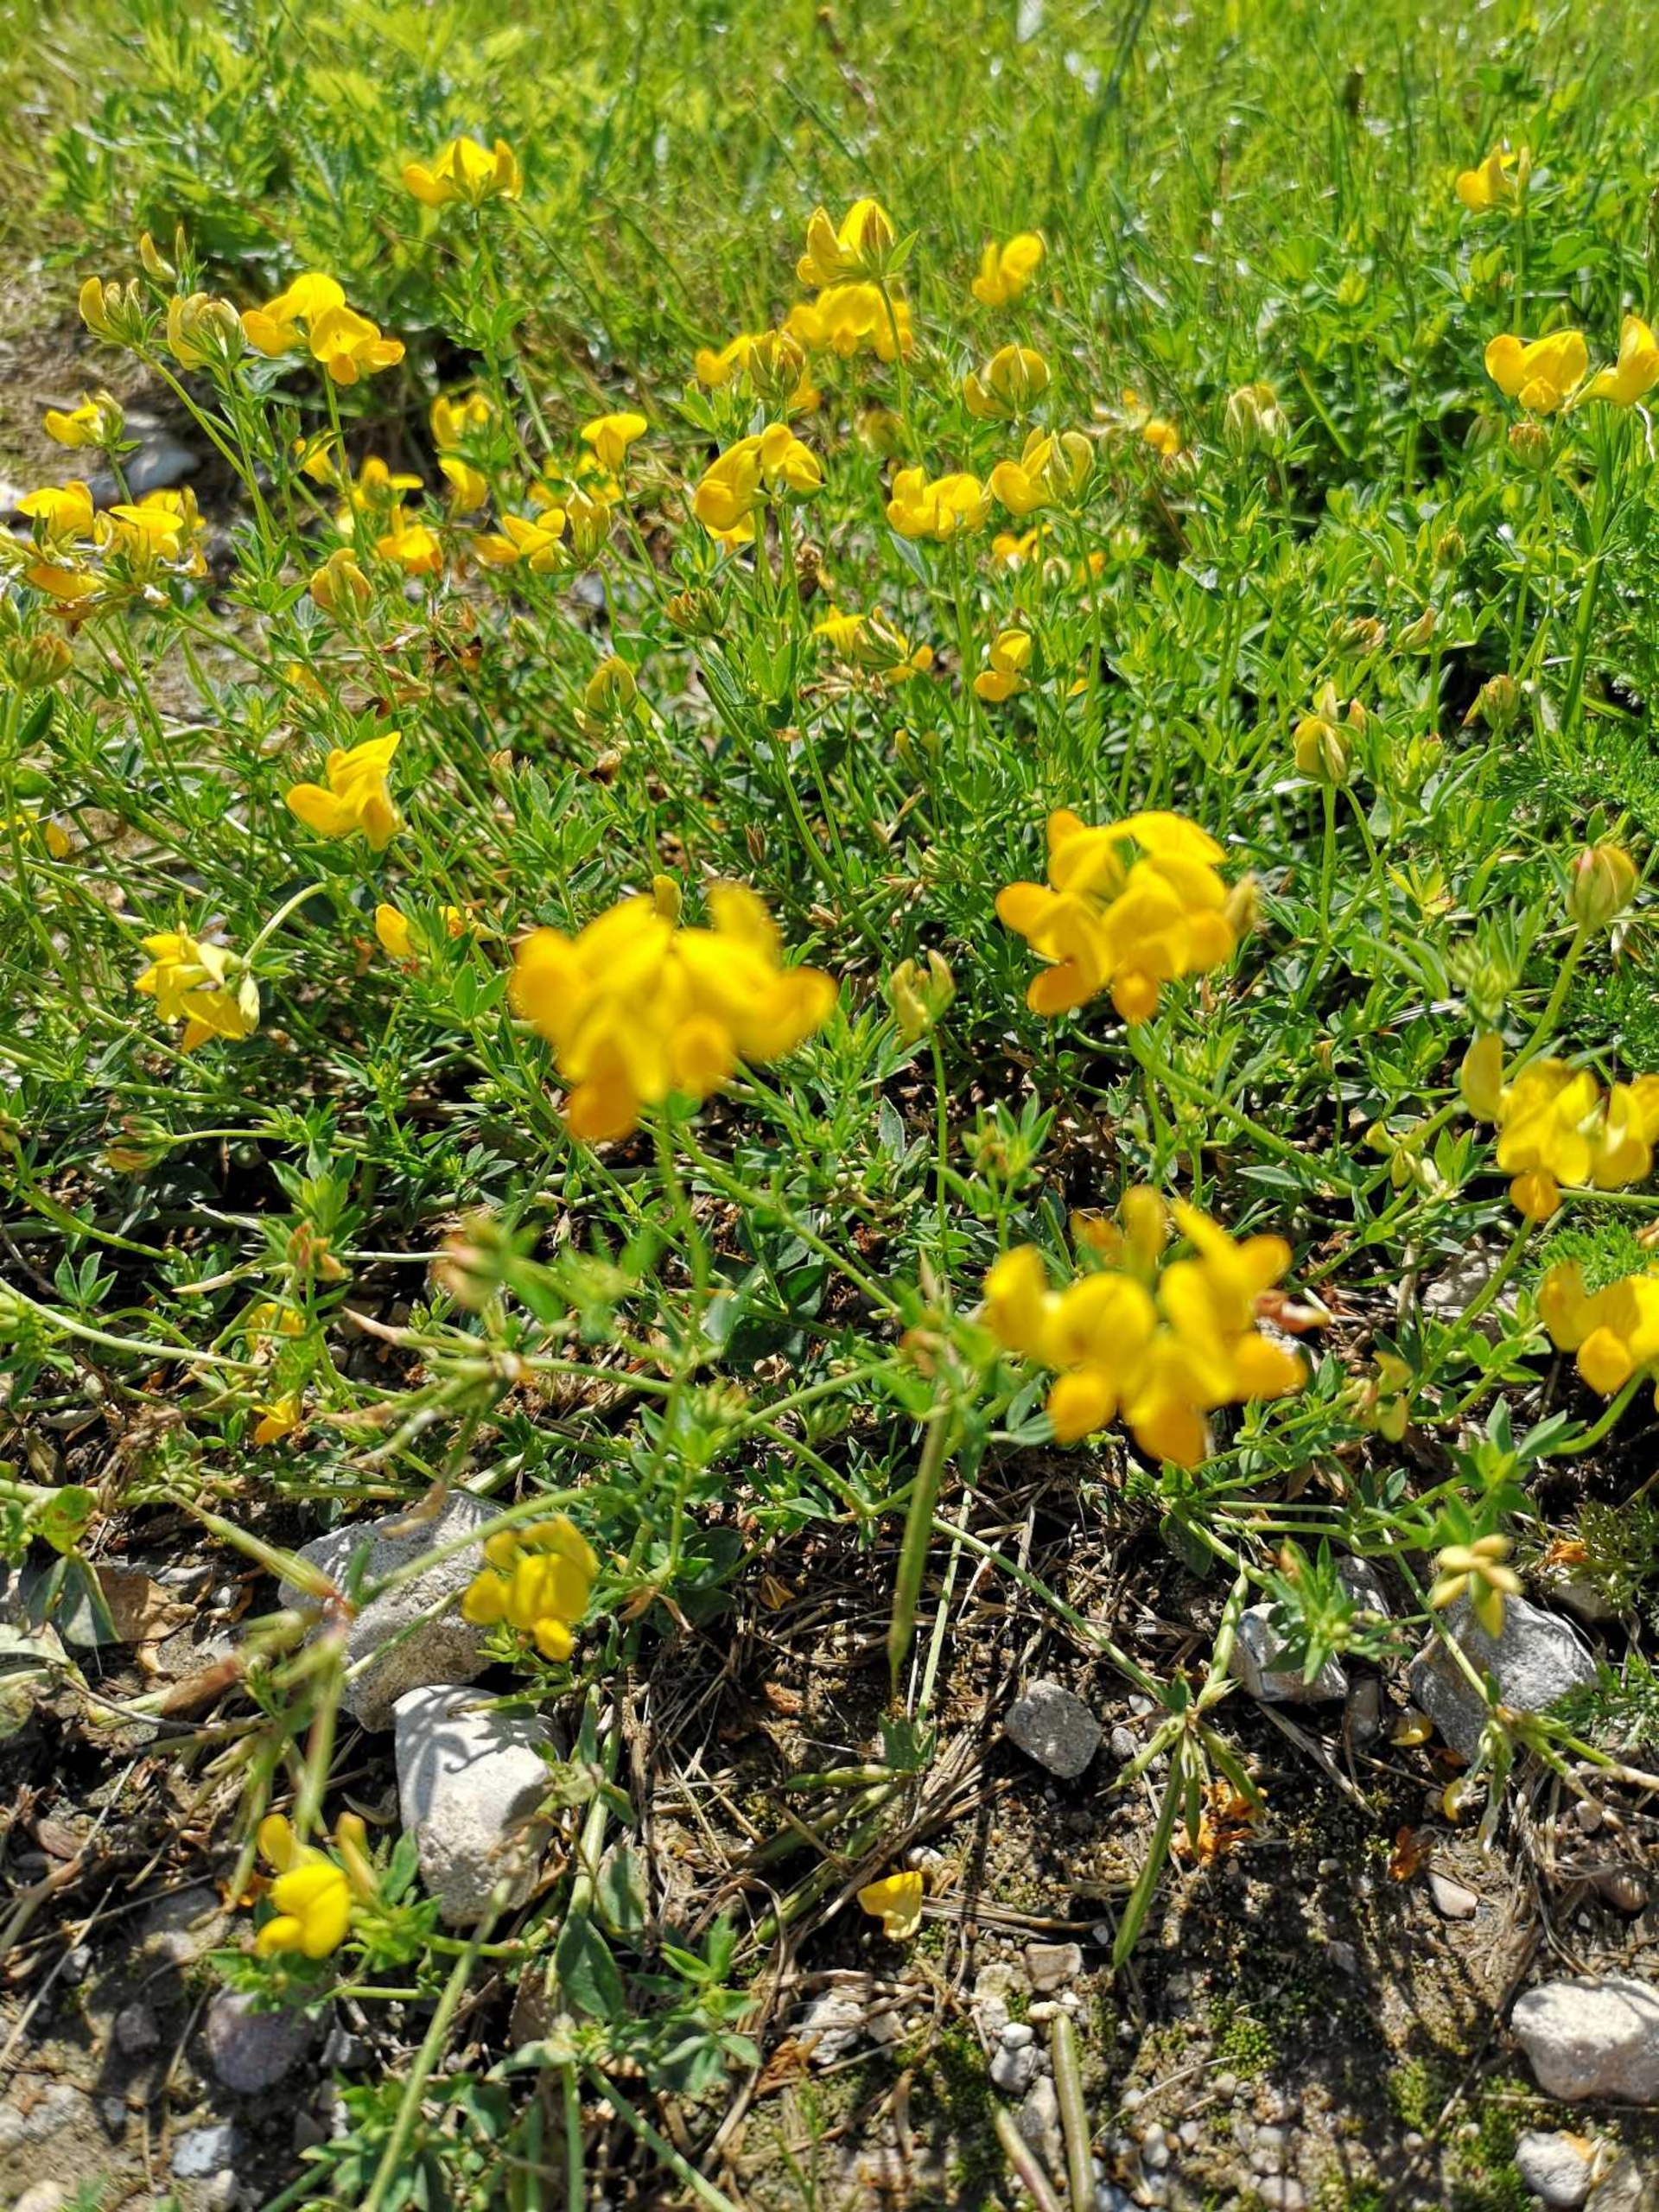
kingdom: Plantae
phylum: Tracheophyta
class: Magnoliopsida
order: Fabales
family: Fabaceae
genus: Lotus
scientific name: Lotus corniculatus
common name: Almindelig kællingetand (varietet)
